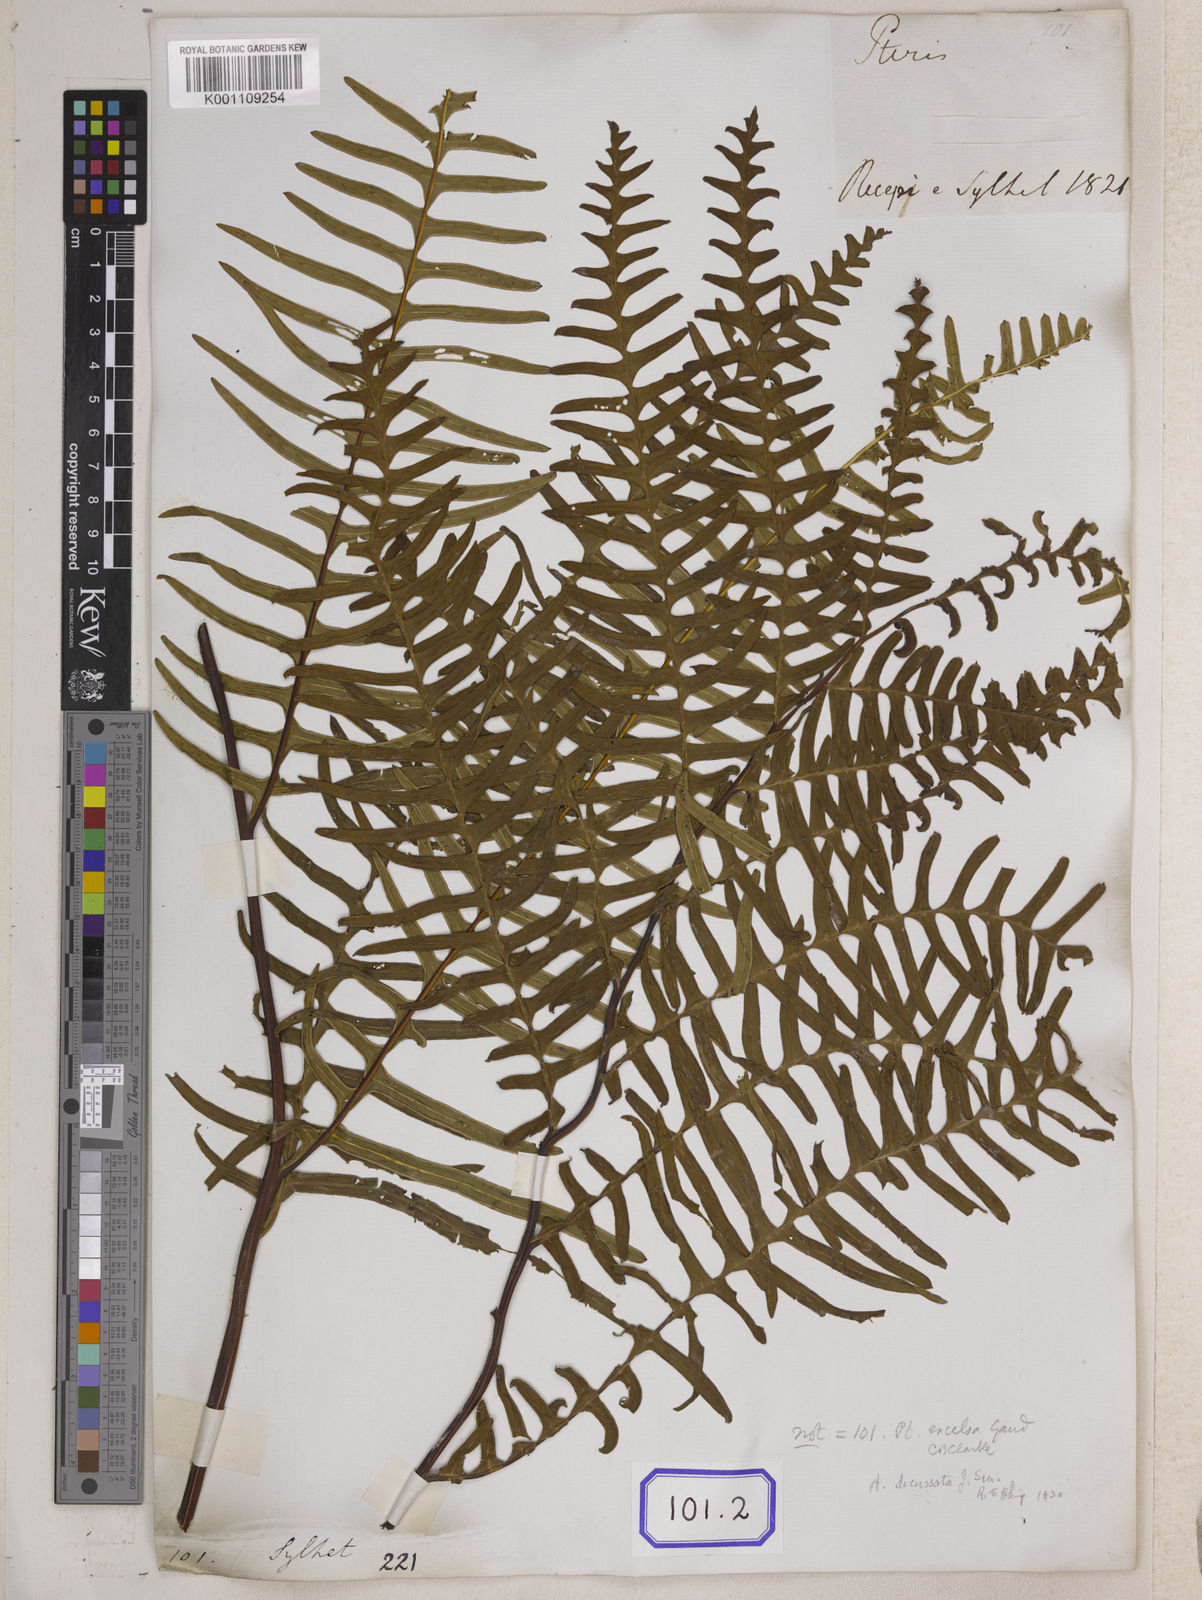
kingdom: Plantae
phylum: Tracheophyta
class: Polypodiopsida
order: Polypodiales
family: Pteridaceae
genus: Pteris
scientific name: Pteris terminalis
